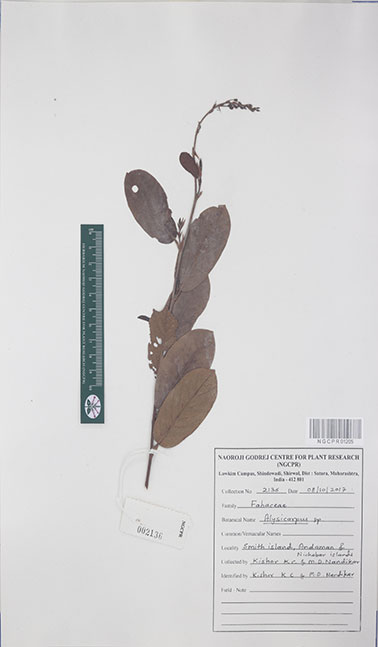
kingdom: Plantae
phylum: Tracheophyta
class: Magnoliopsida
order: Fabales
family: Fabaceae
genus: Alysicarpus
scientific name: Alysicarpus
